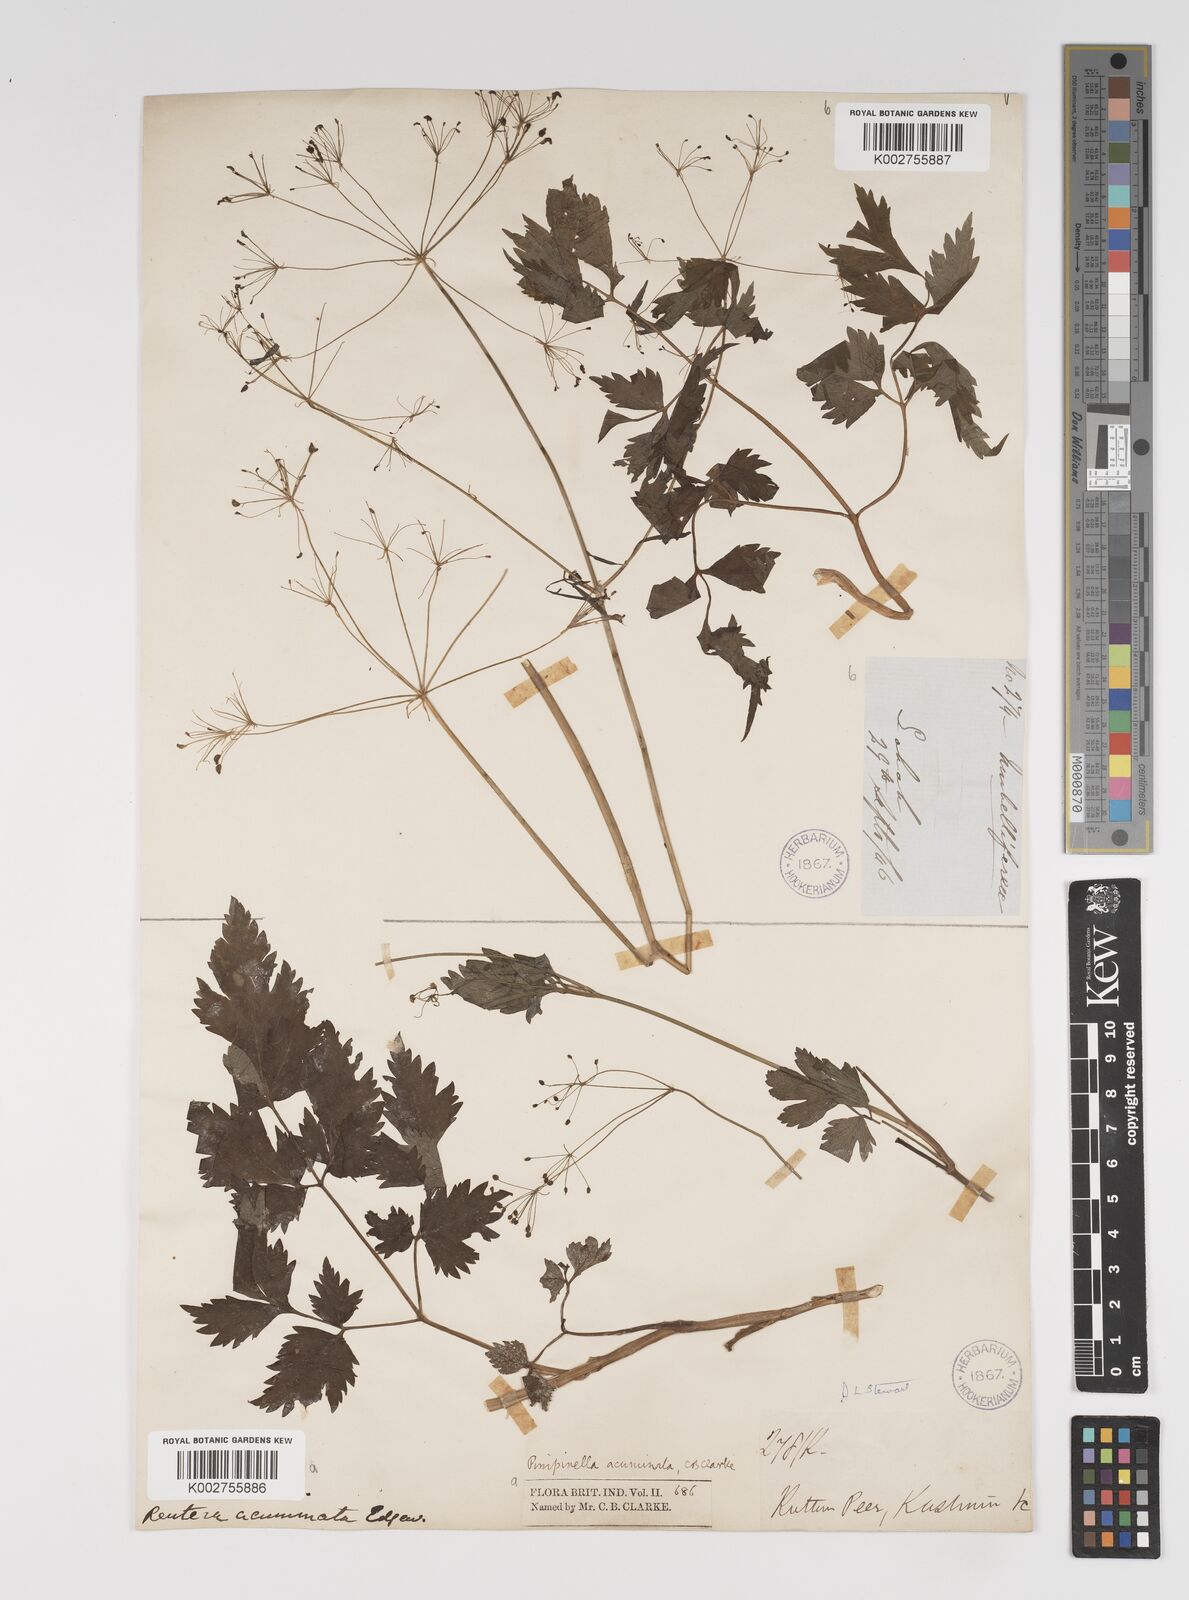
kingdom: Plantae
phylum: Tracheophyta
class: Magnoliopsida
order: Apiales
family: Apiaceae
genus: Pimpinella
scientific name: Pimpinella acuminata
